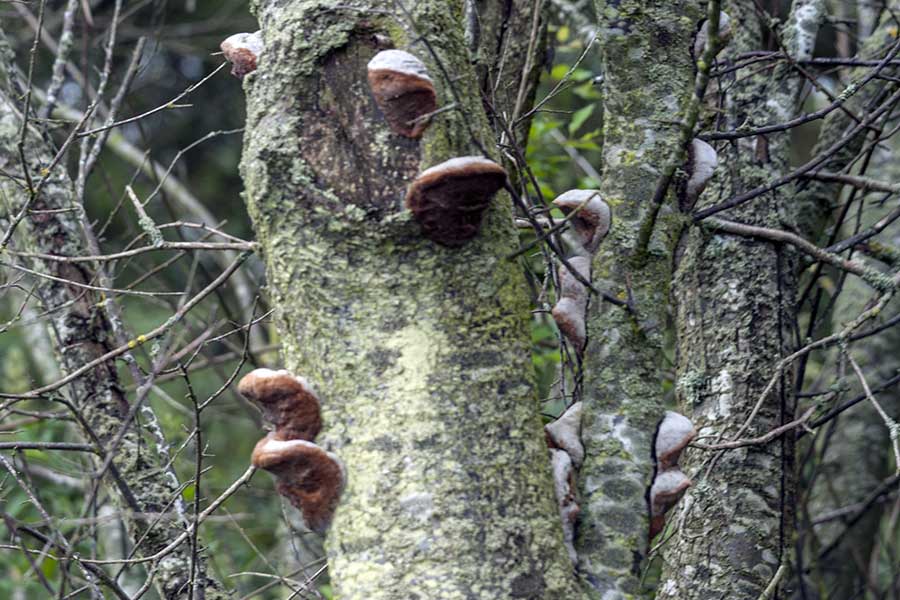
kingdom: Fungi
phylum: Basidiomycota
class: Agaricomycetes
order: Hymenochaetales
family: Hymenochaetaceae
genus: Phellinus
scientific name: Phellinus pomaceus
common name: blomme-ildporesvamp
